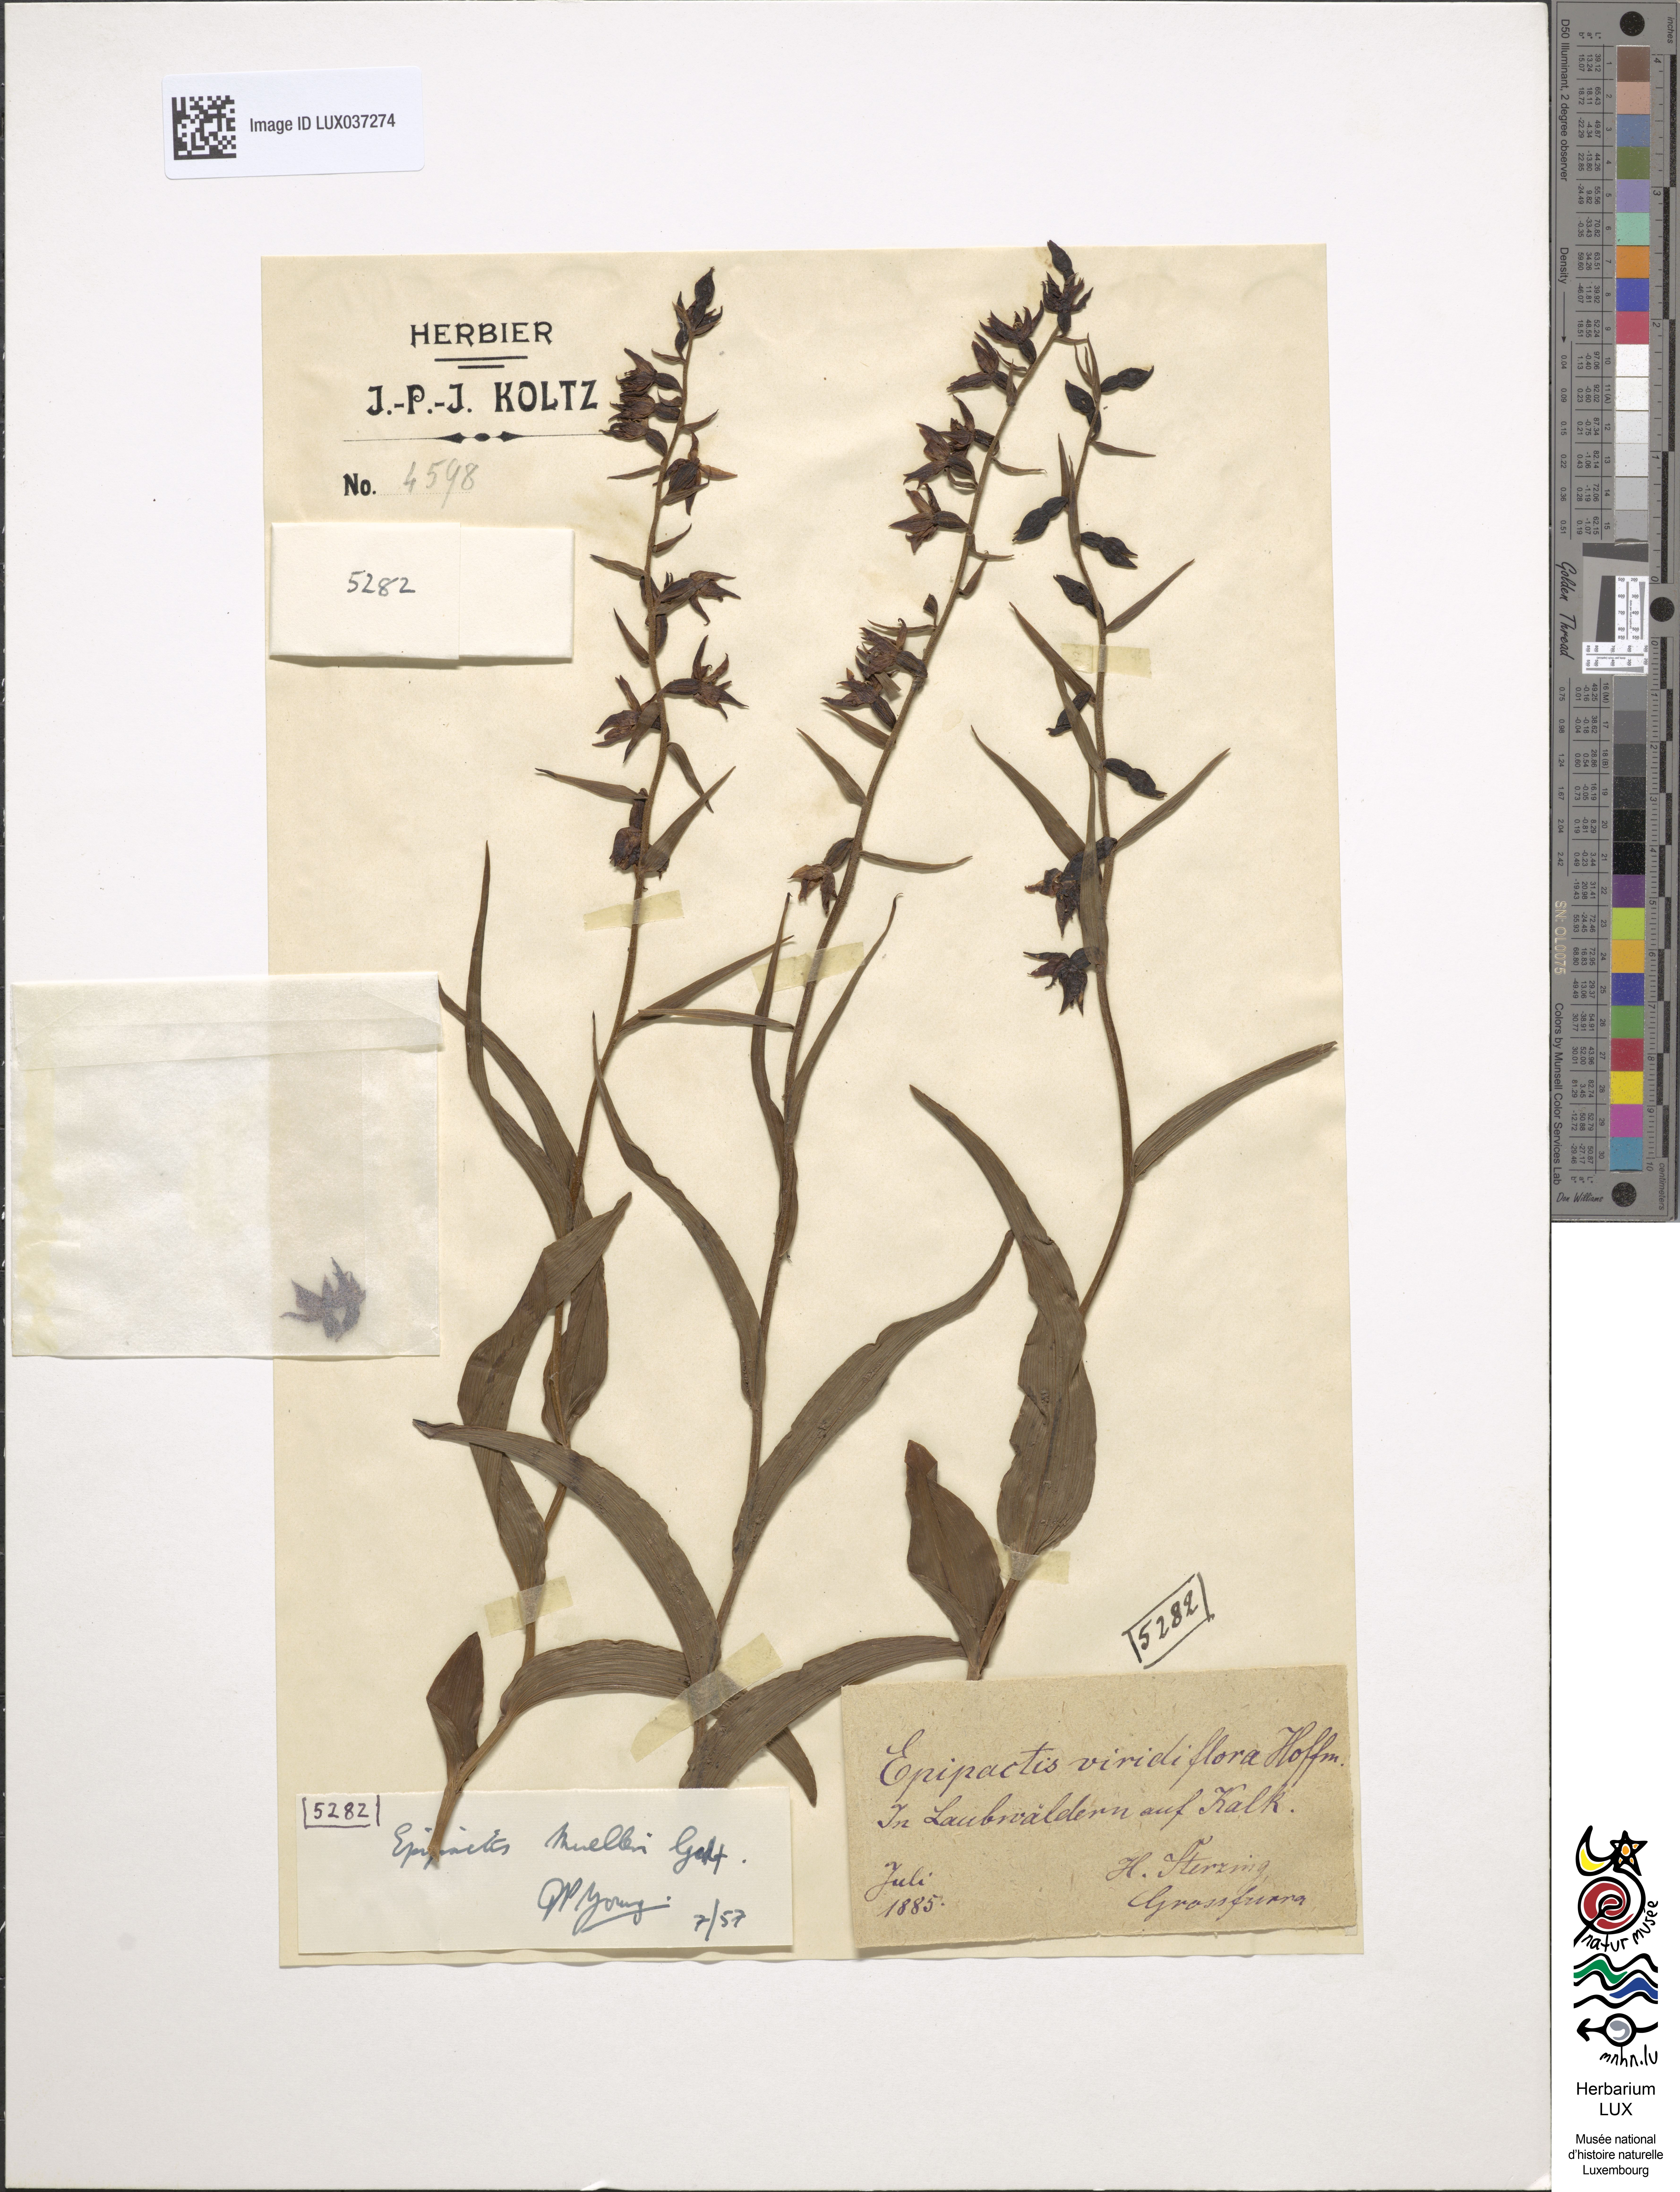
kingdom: Plantae
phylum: Tracheophyta
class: Liliopsida
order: Asparagales
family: Orchidaceae
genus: Epipactis
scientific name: Epipactis muelleri
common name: Mueller's epipactis
